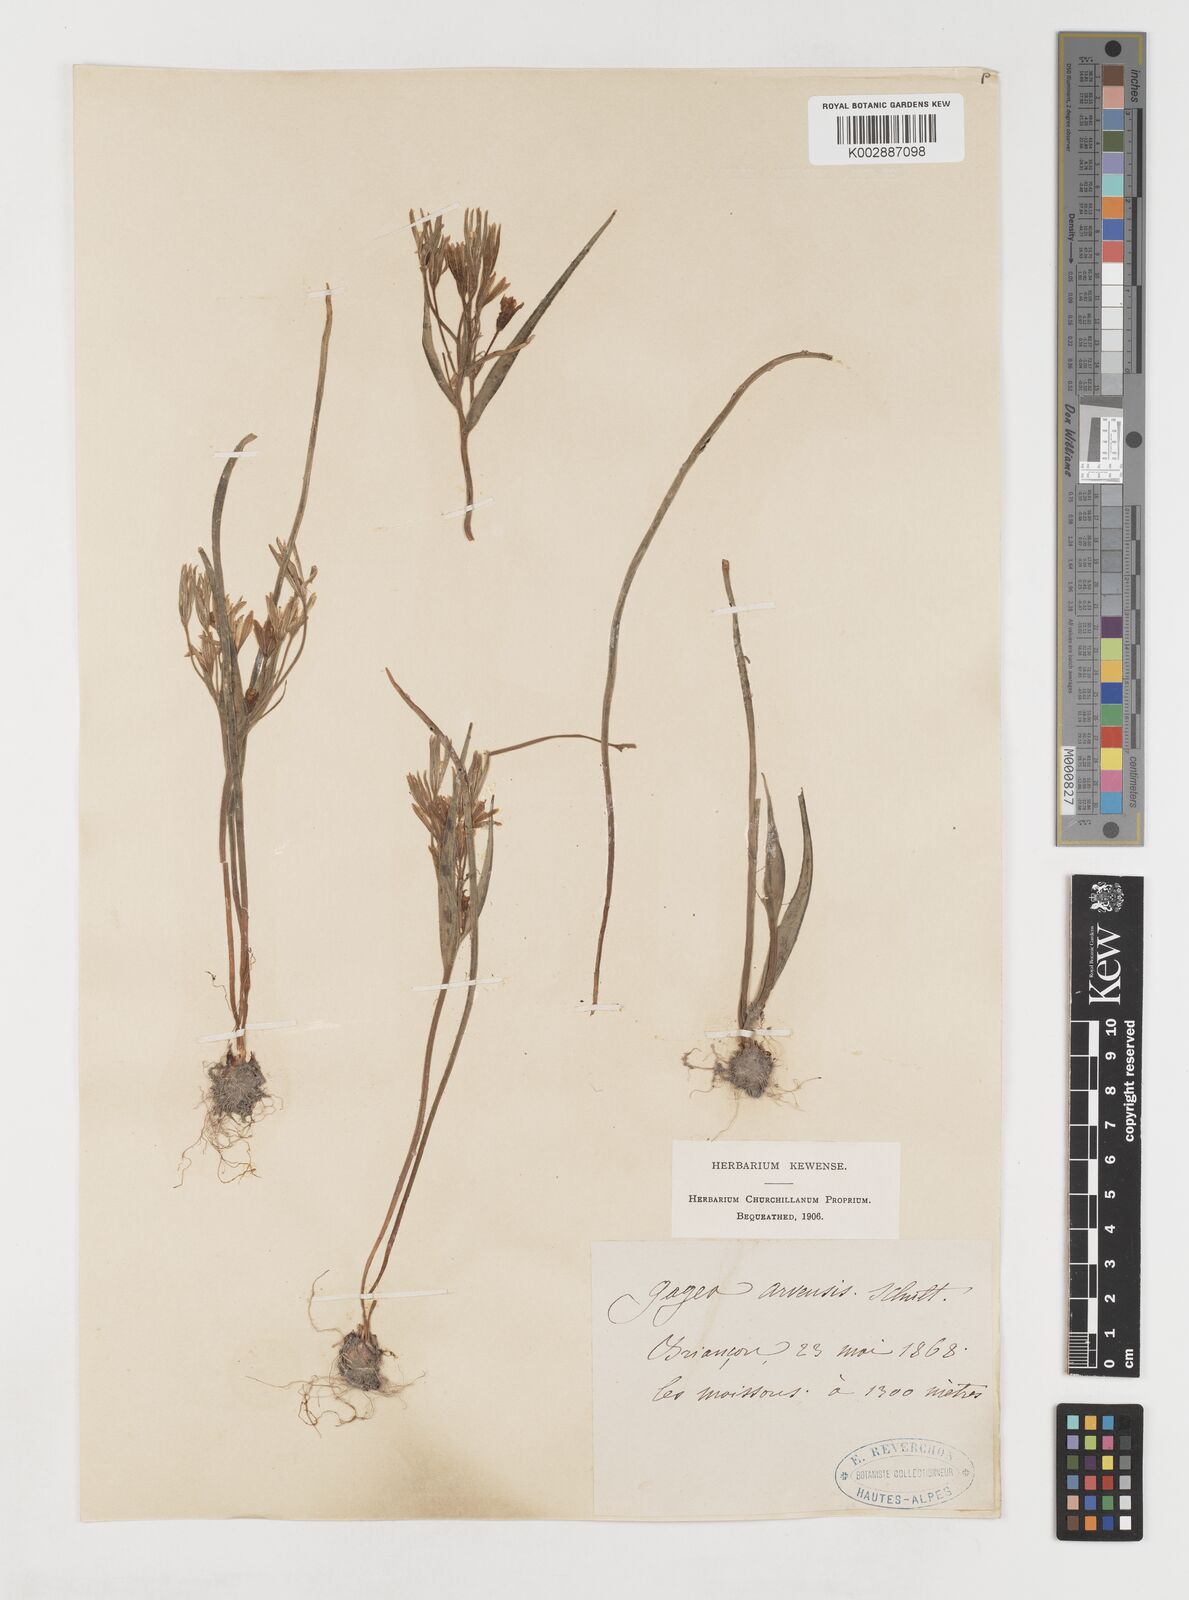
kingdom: Plantae
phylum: Tracheophyta
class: Liliopsida
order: Liliales
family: Liliaceae
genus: Gagea
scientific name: Gagea minima
